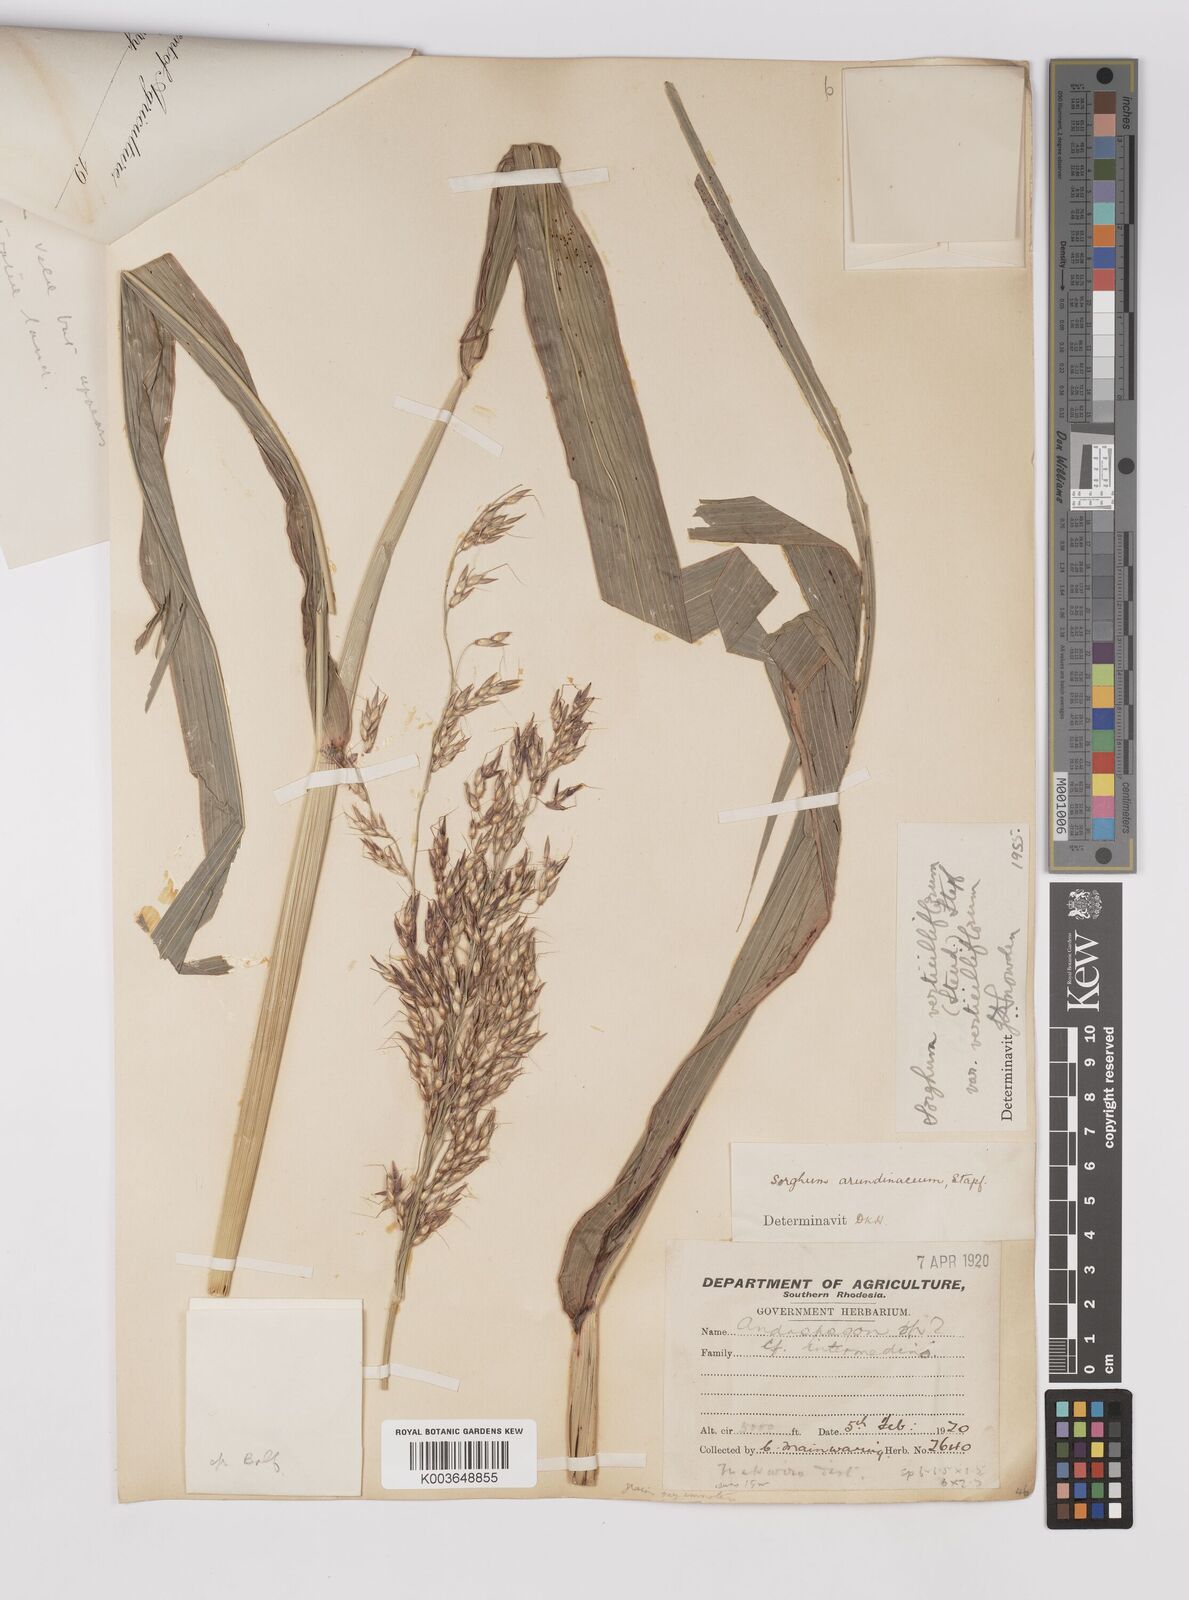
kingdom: Plantae
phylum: Tracheophyta
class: Liliopsida
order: Poales
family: Poaceae
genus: Sorghum
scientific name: Sorghum arundinaceum
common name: Sorghum
